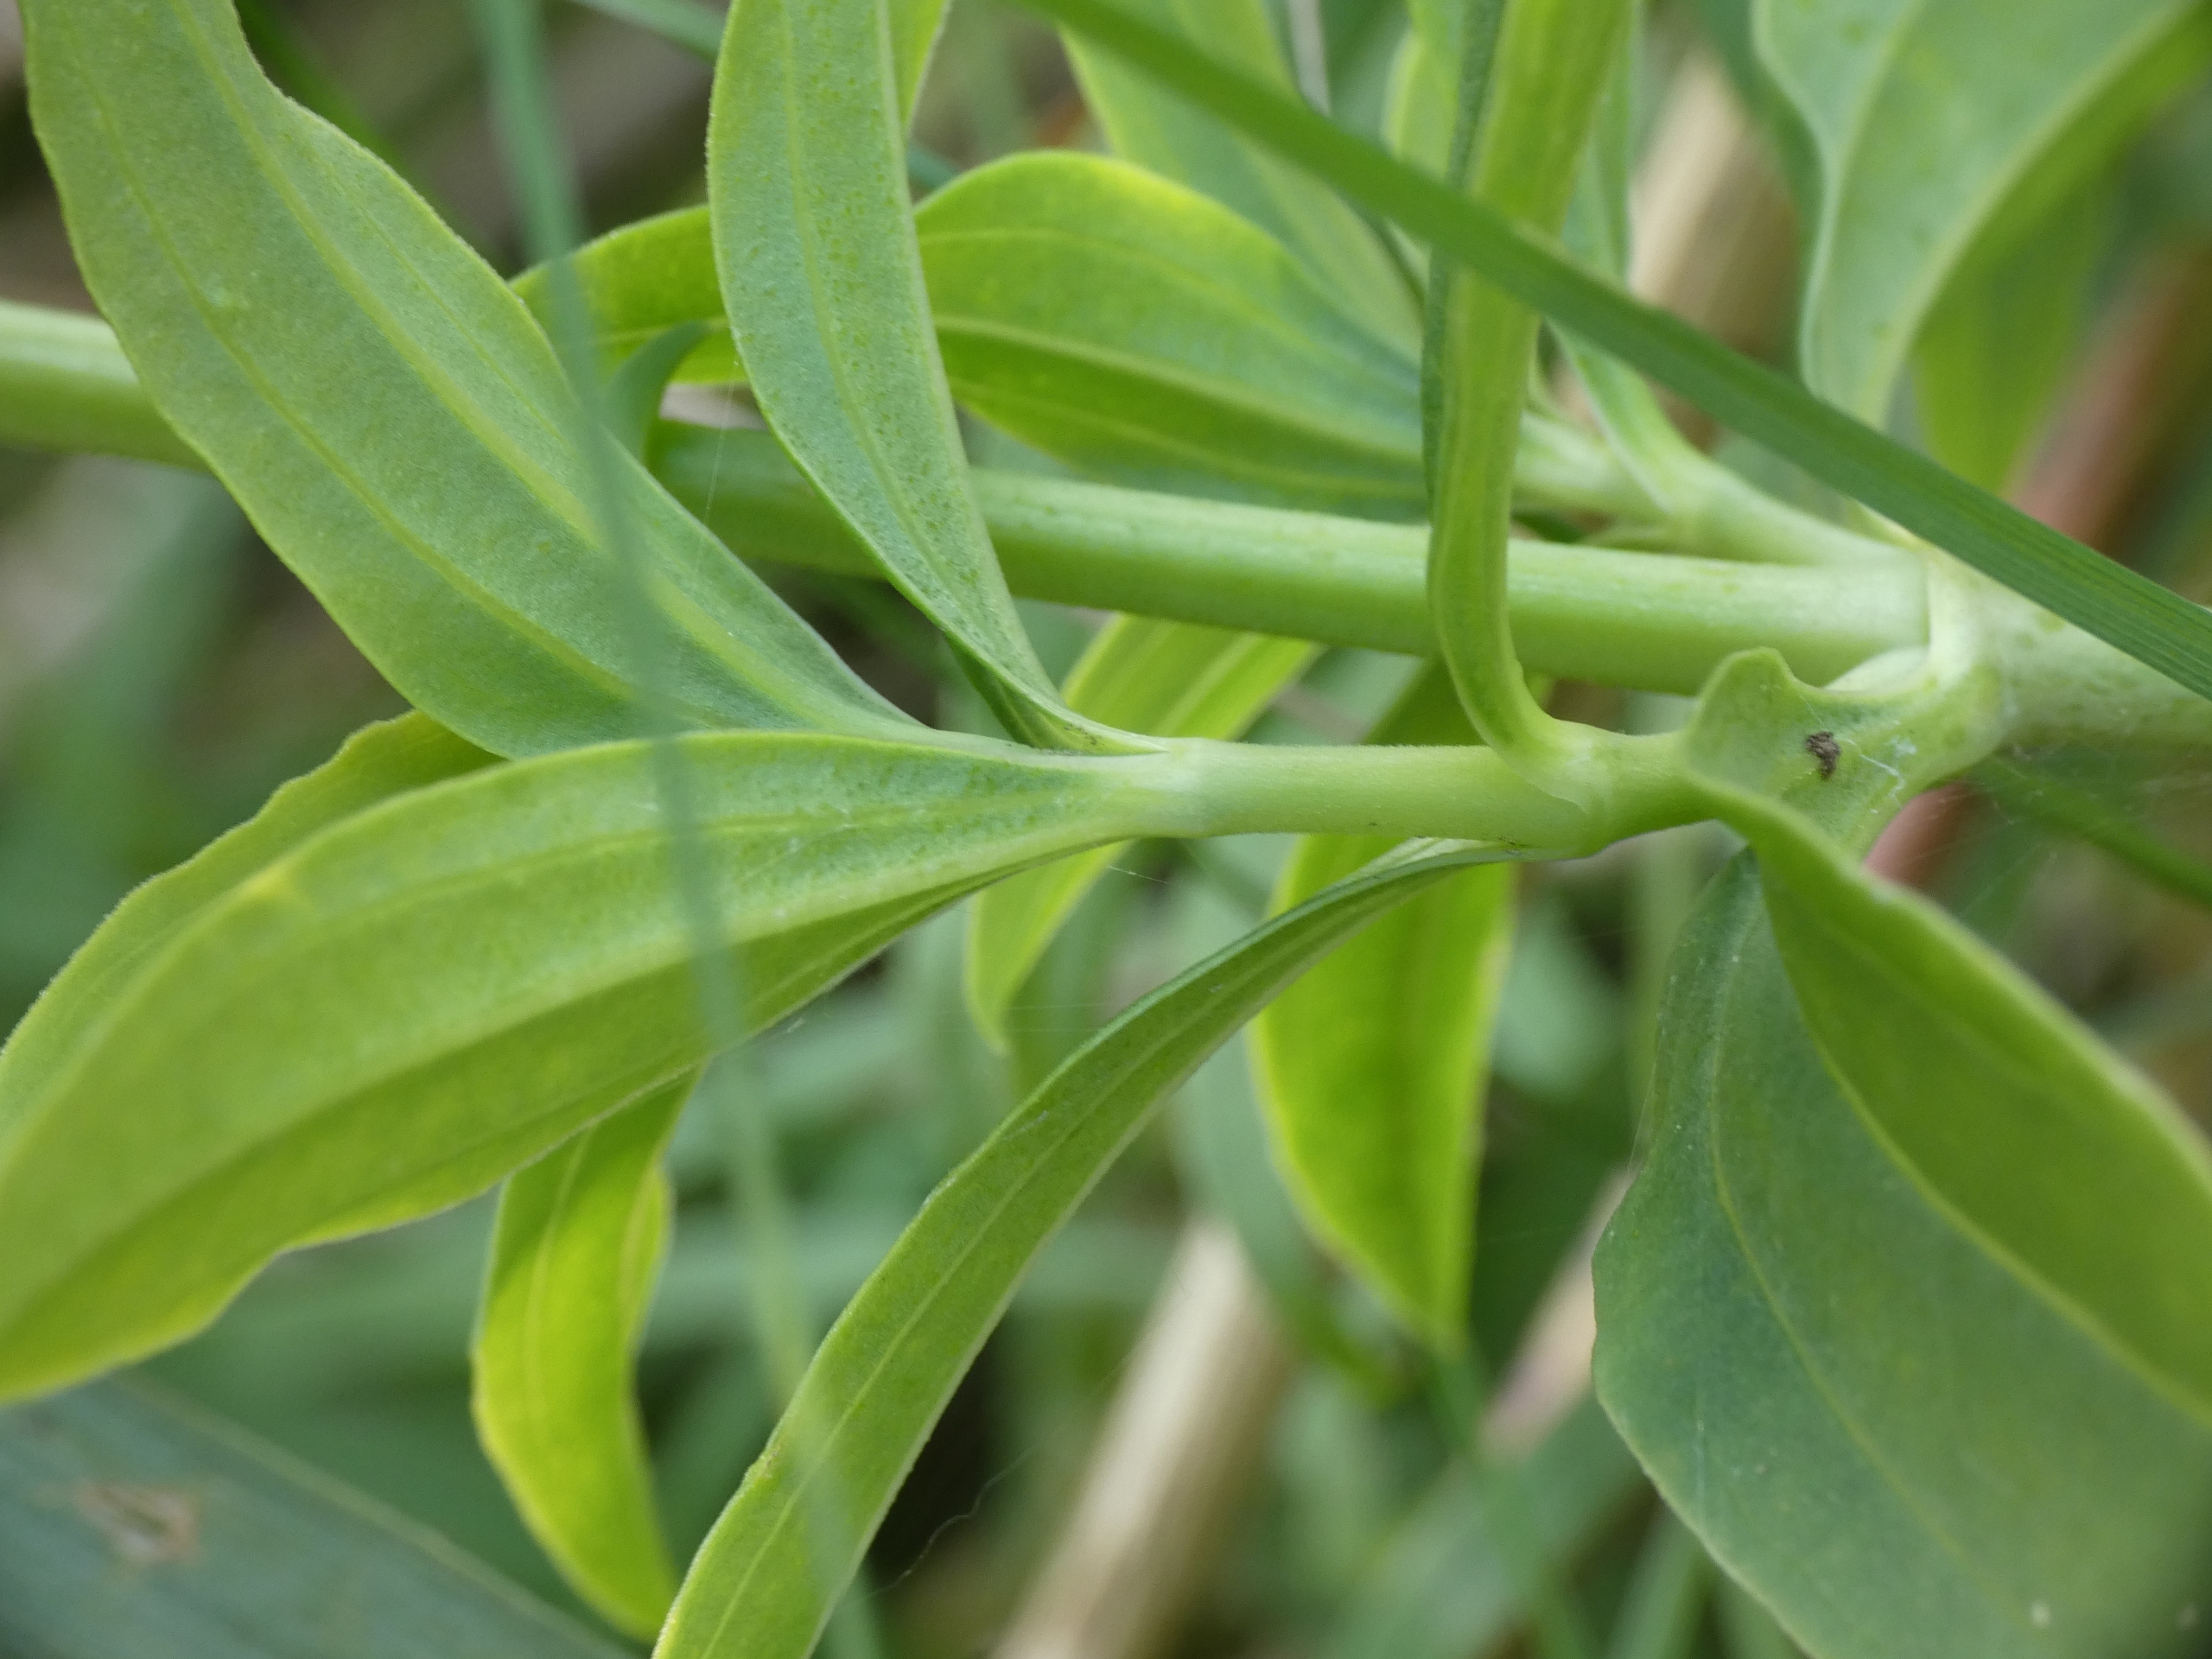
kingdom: Plantae
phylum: Tracheophyta
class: Magnoliopsida
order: Caryophyllales
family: Caryophyllaceae
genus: Saponaria
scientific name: Saponaria officinalis
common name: Sæbeurt
